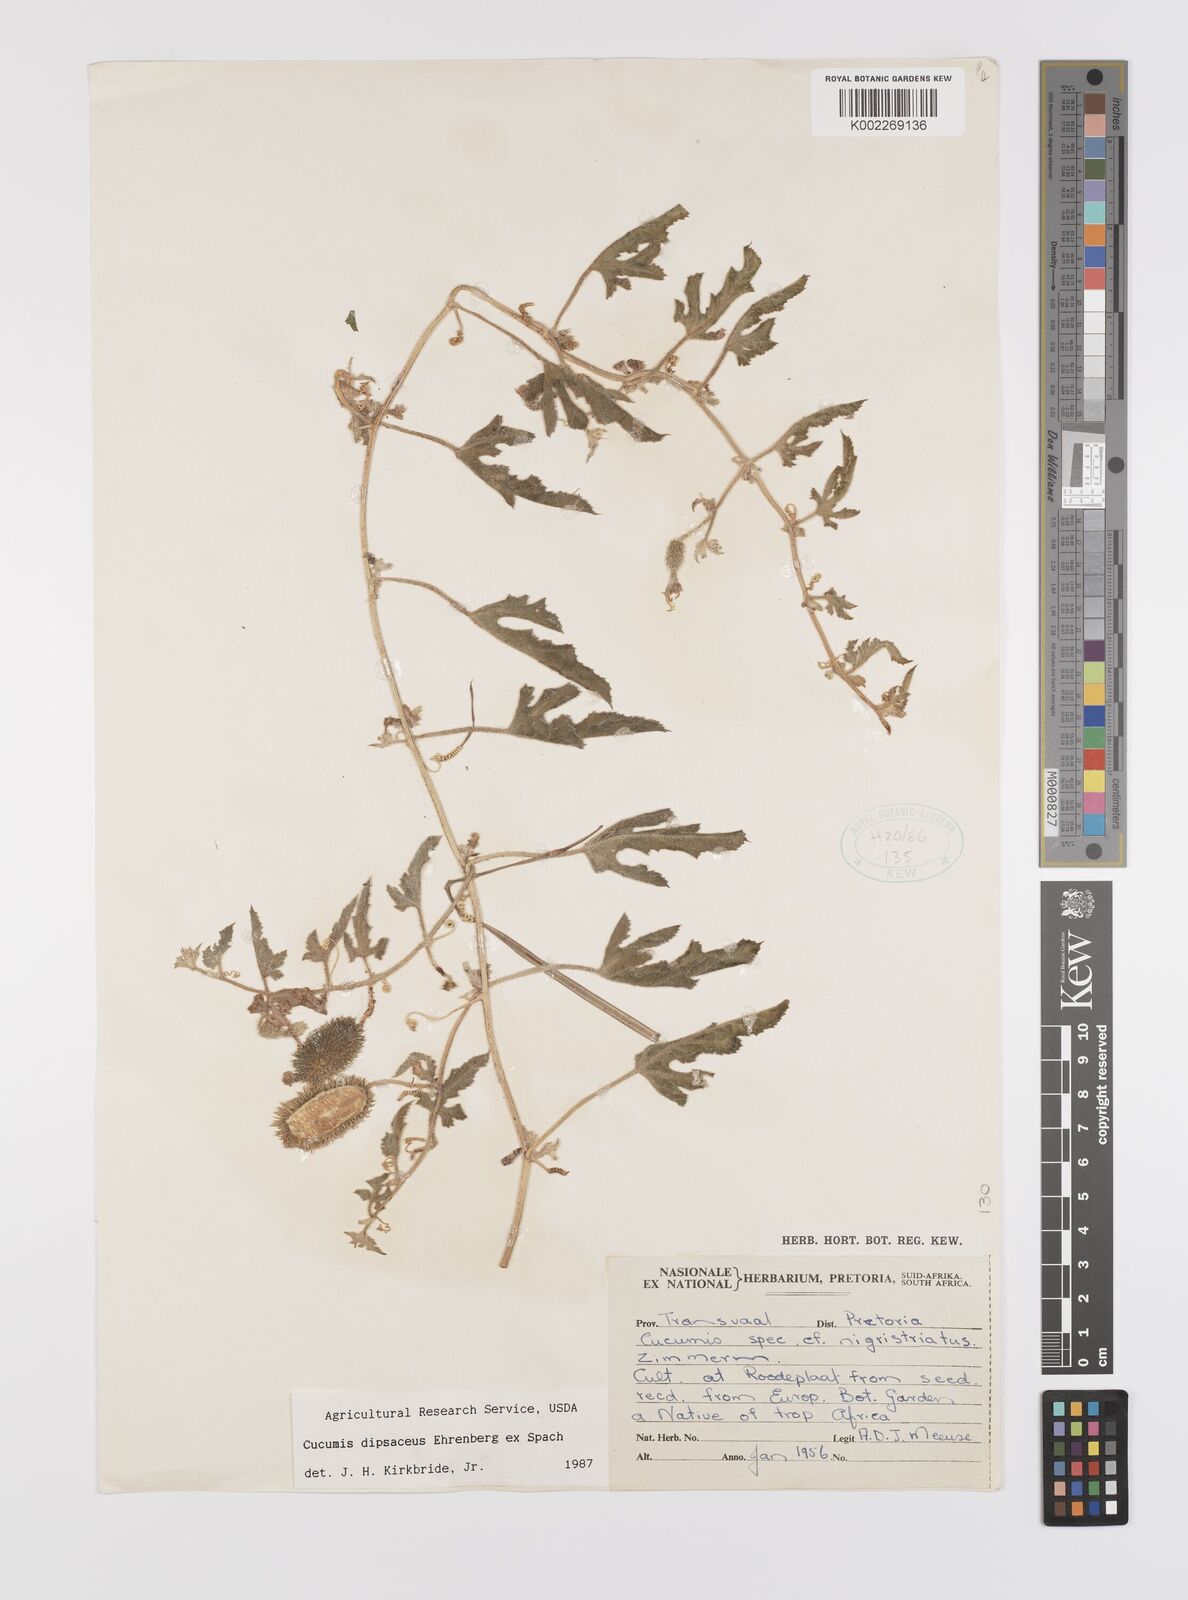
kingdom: Plantae
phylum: Tracheophyta
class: Magnoliopsida
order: Cucurbitales
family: Cucurbitaceae
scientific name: Cucurbitaceae
